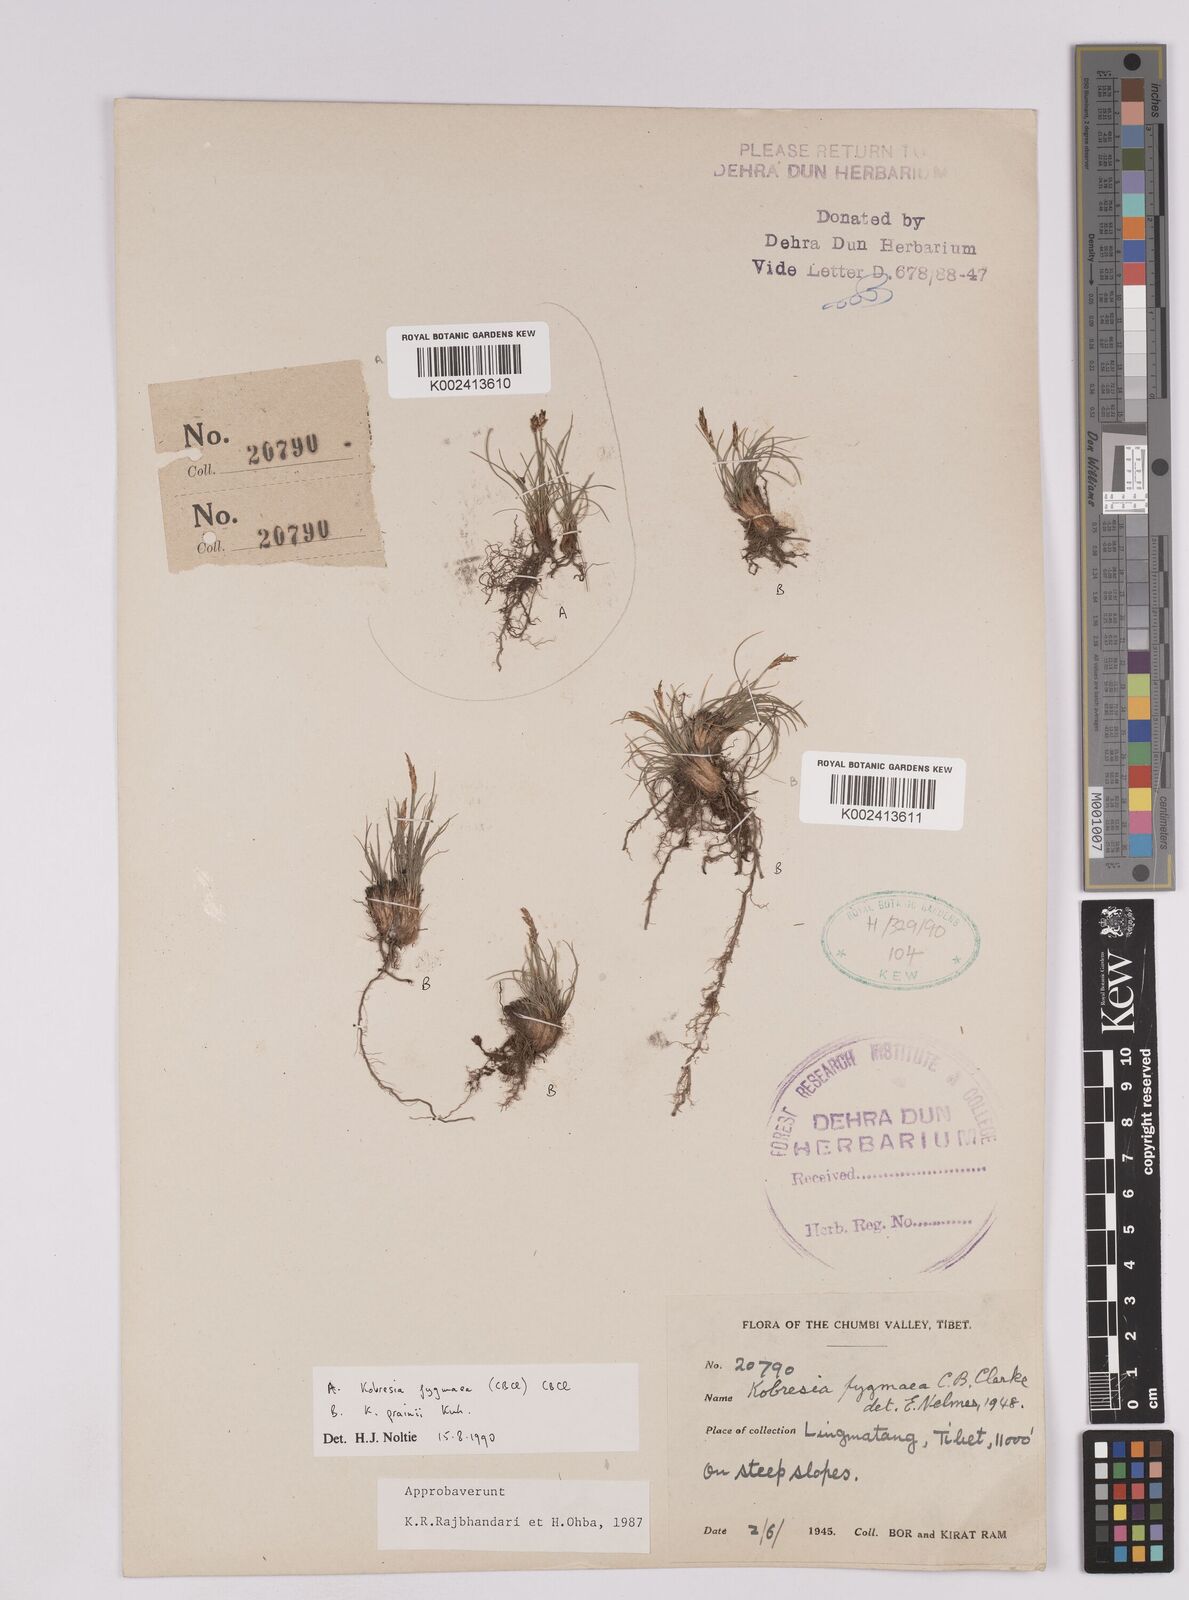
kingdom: Plantae
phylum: Tracheophyta
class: Liliopsida
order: Poales
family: Cyperaceae
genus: Carex
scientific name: Carex parvula
